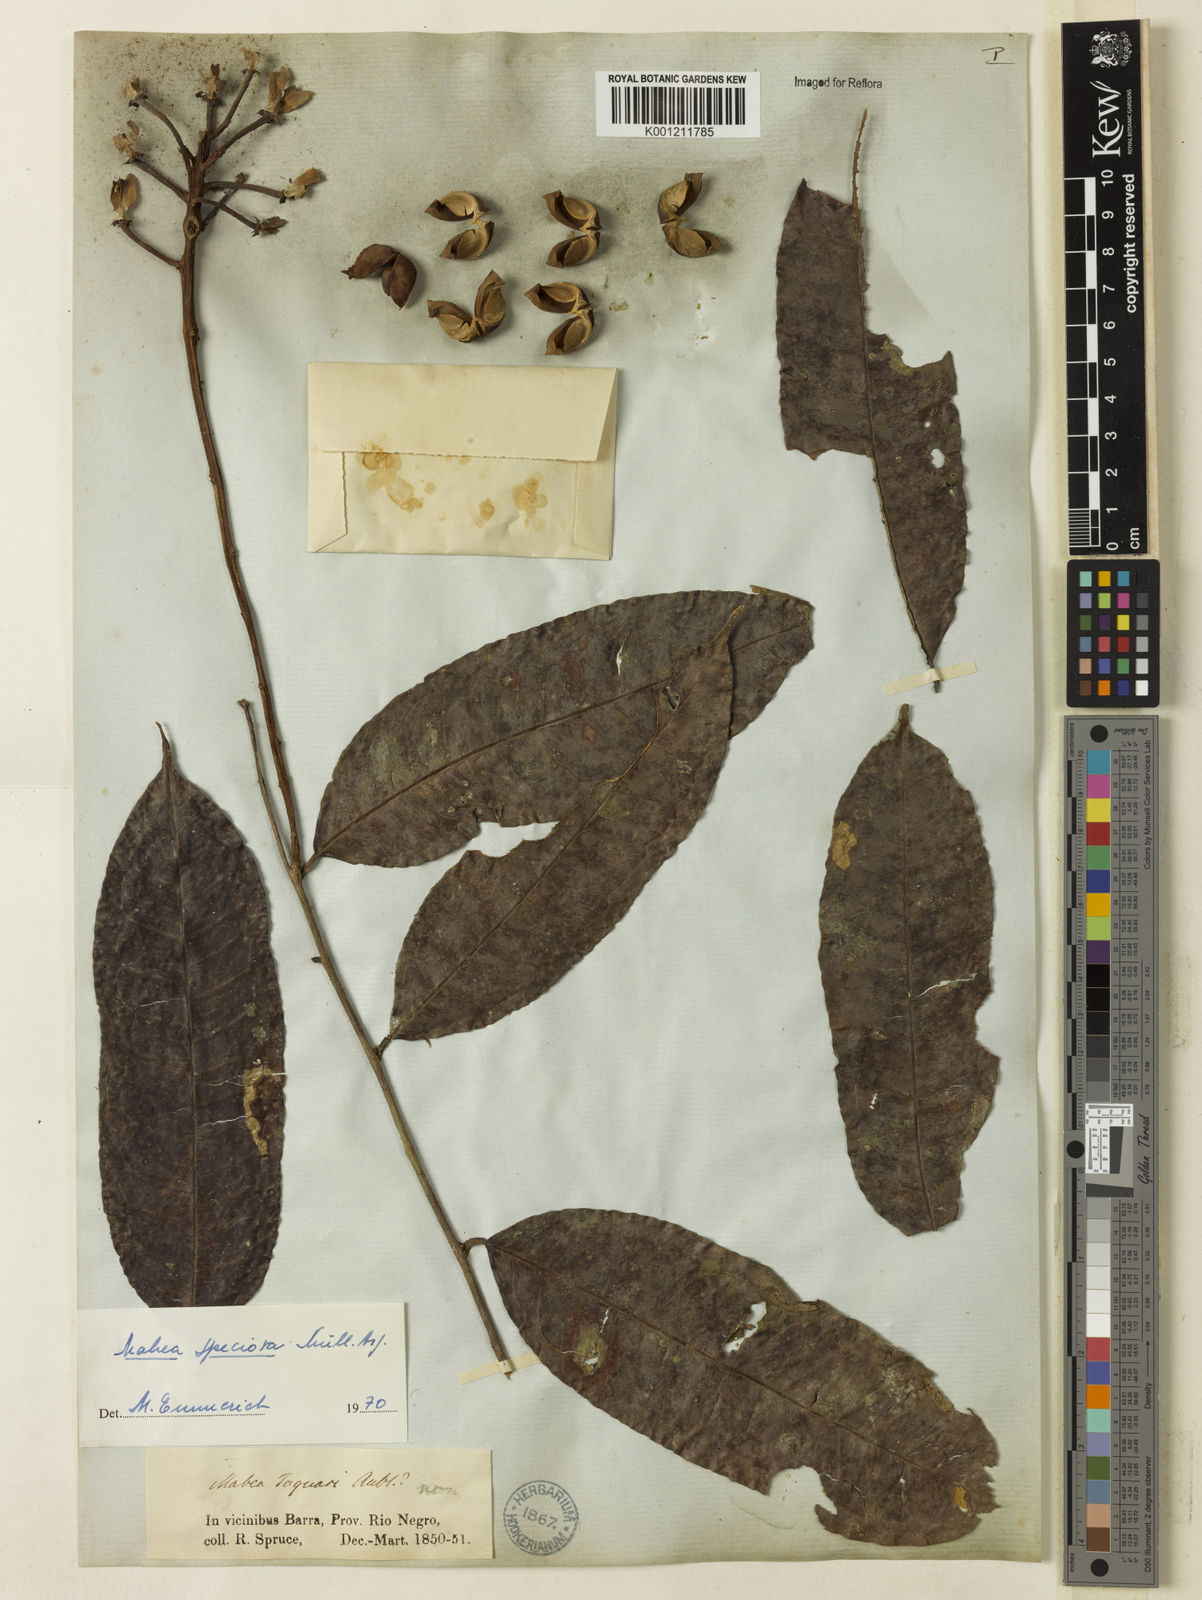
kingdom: Plantae
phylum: Tracheophyta
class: Magnoliopsida
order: Malpighiales
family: Euphorbiaceae
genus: Mabea
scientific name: Mabea
